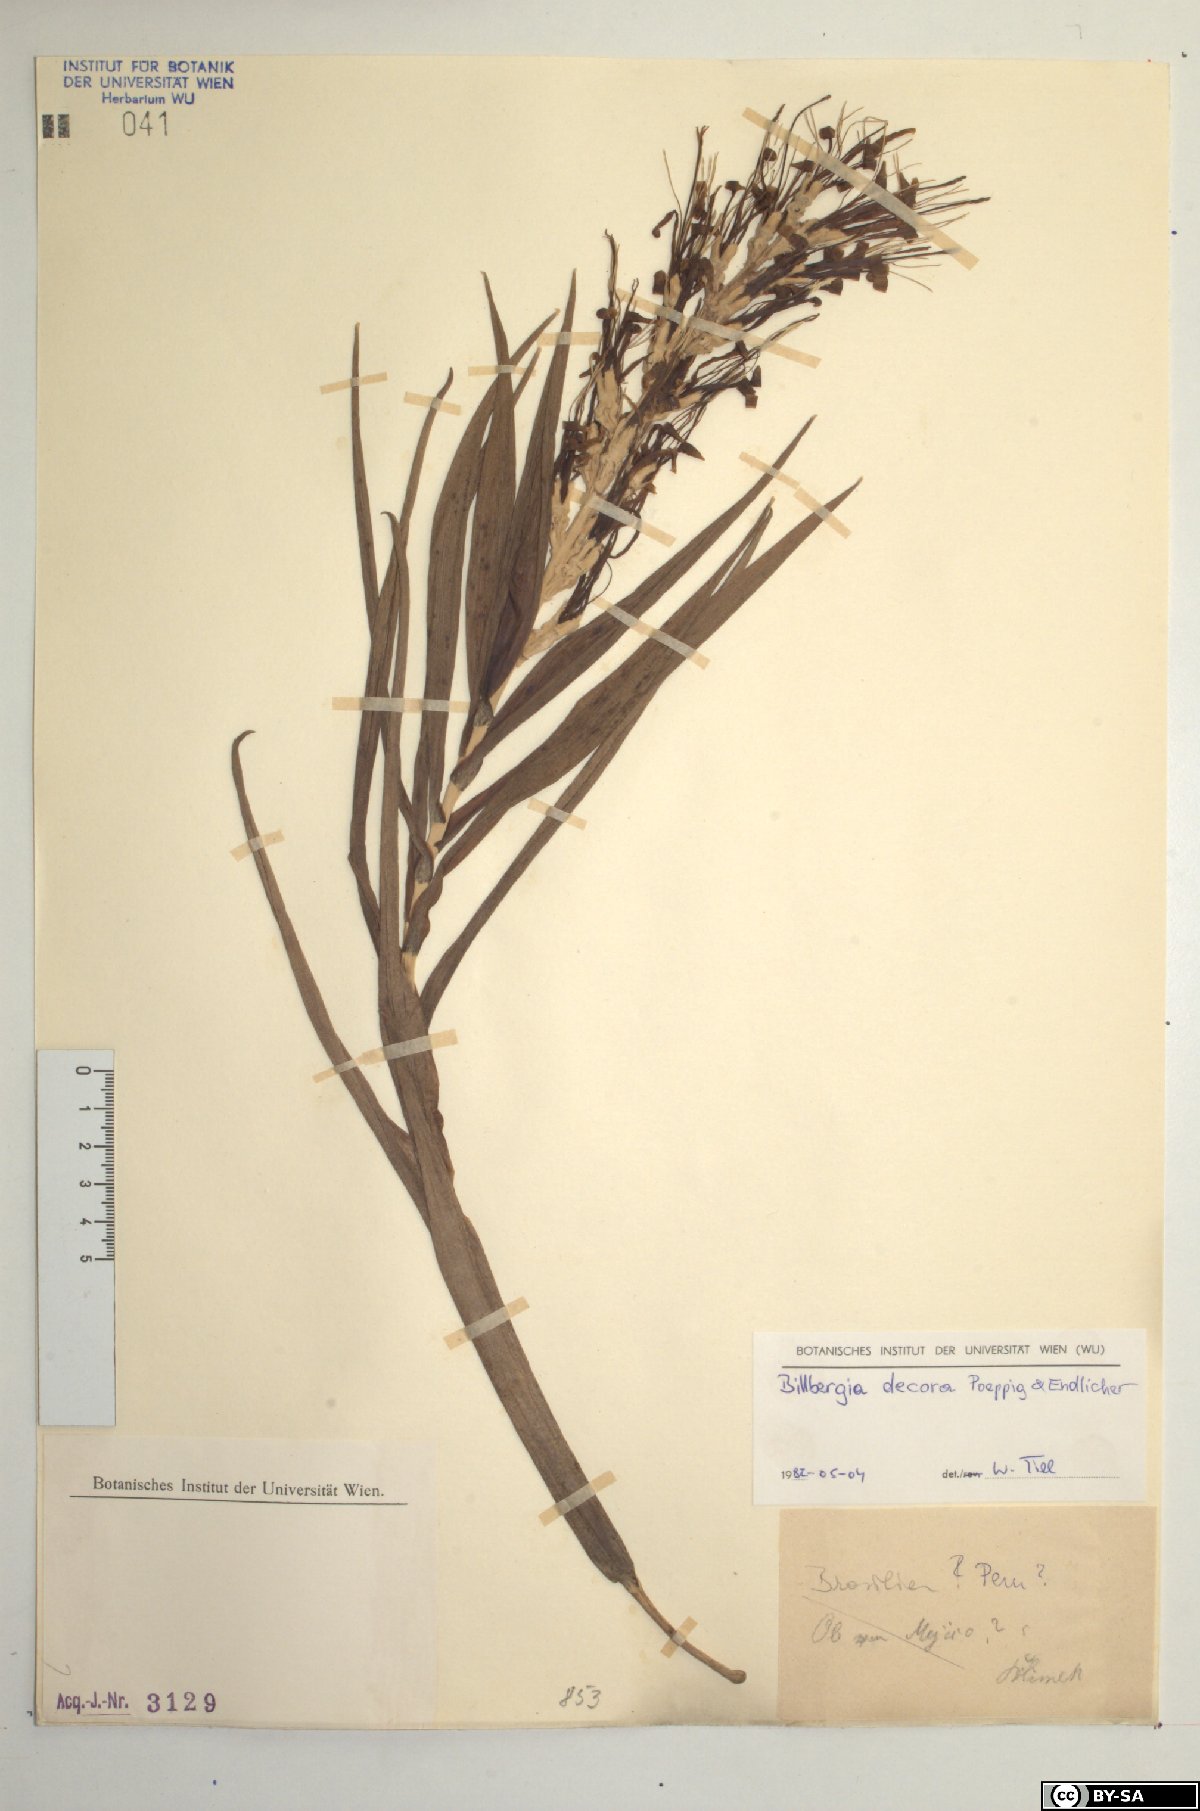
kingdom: Plantae
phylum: Tracheophyta
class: Liliopsida
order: Poales
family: Bromeliaceae
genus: Billbergia
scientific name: Billbergia decora
